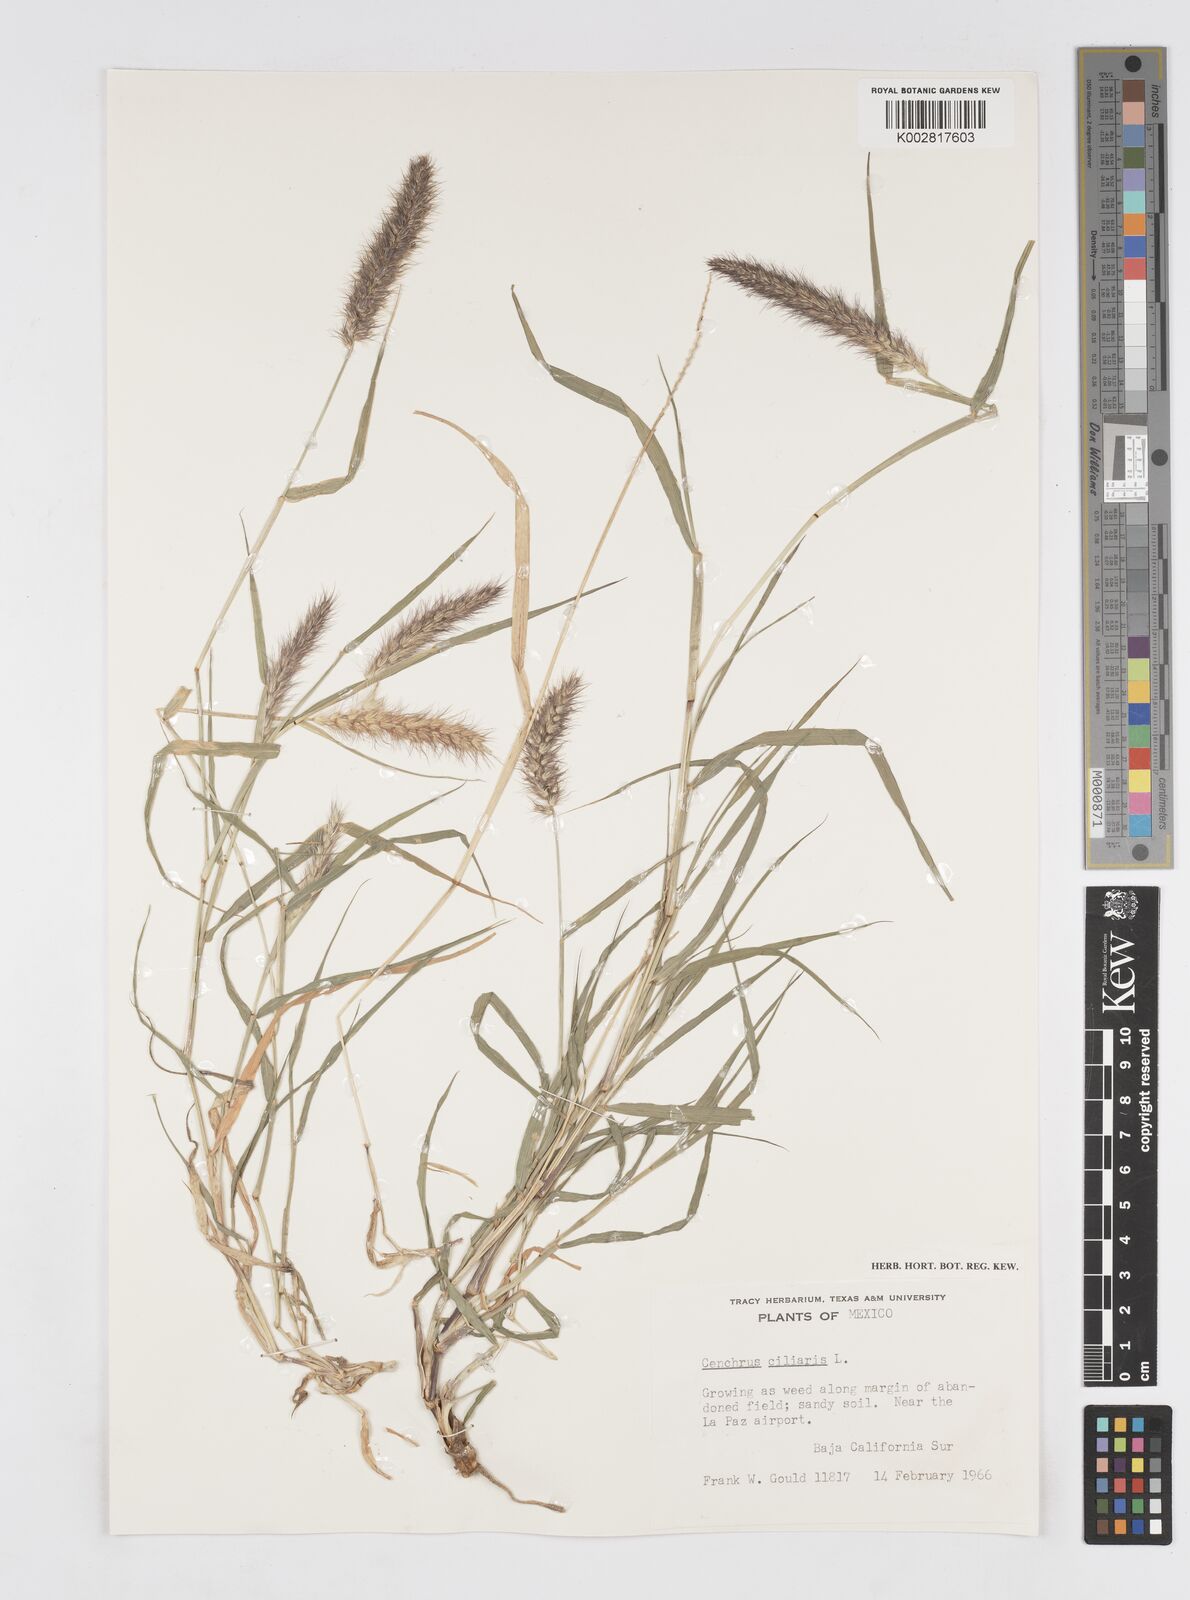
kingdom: Plantae
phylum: Tracheophyta
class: Liliopsida
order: Poales
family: Poaceae
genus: Cenchrus
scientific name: Cenchrus ciliaris
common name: Buffelgrass
